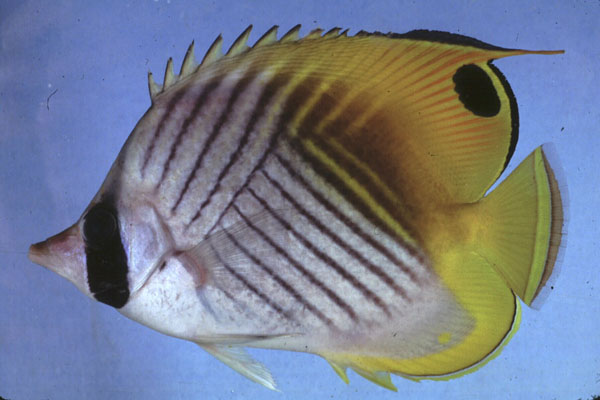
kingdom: Animalia
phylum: Chordata
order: Perciformes
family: Chaetodontidae
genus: Chaetodon
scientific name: Chaetodon auriga
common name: Threadfin butterflyfish
